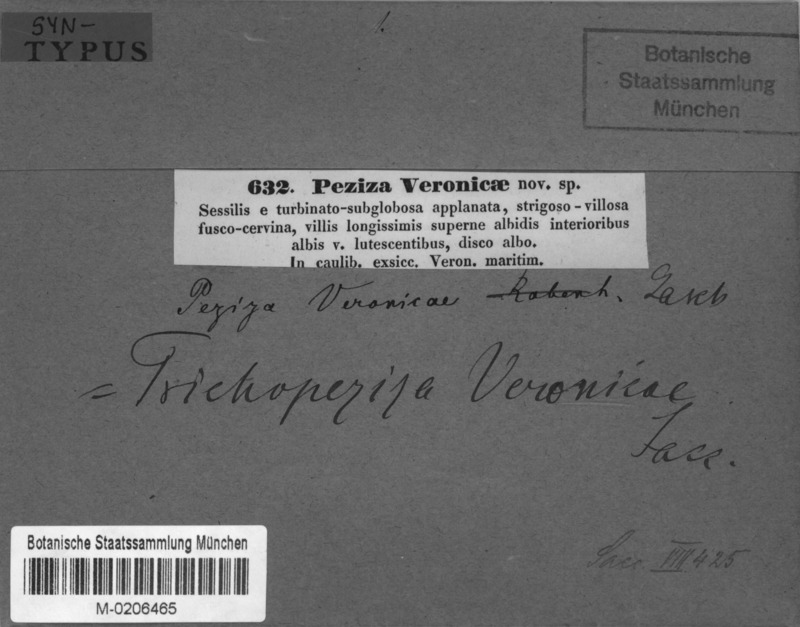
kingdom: Fungi
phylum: Basidiomycota
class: Agaricomycetes
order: Agaricales
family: Niaceae
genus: Lachnella
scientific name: Lachnella veronicae
